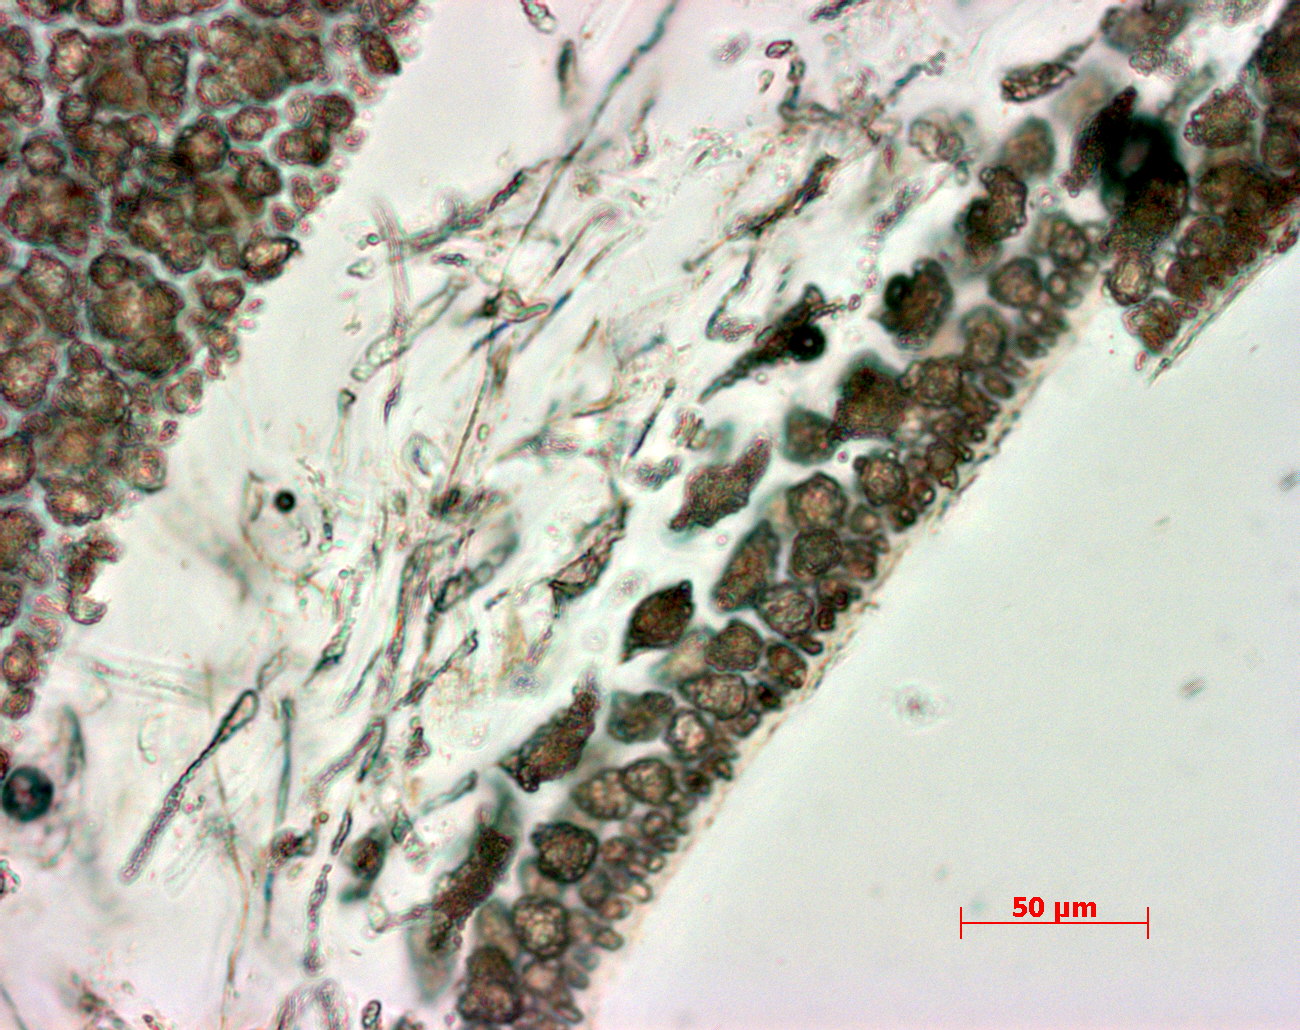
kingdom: Plantae
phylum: Rhodophyta
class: Florideophyceae
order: Gigartinales
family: Kallymeniaceae
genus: Psaromenia
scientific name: Psaromenia berggrenii
